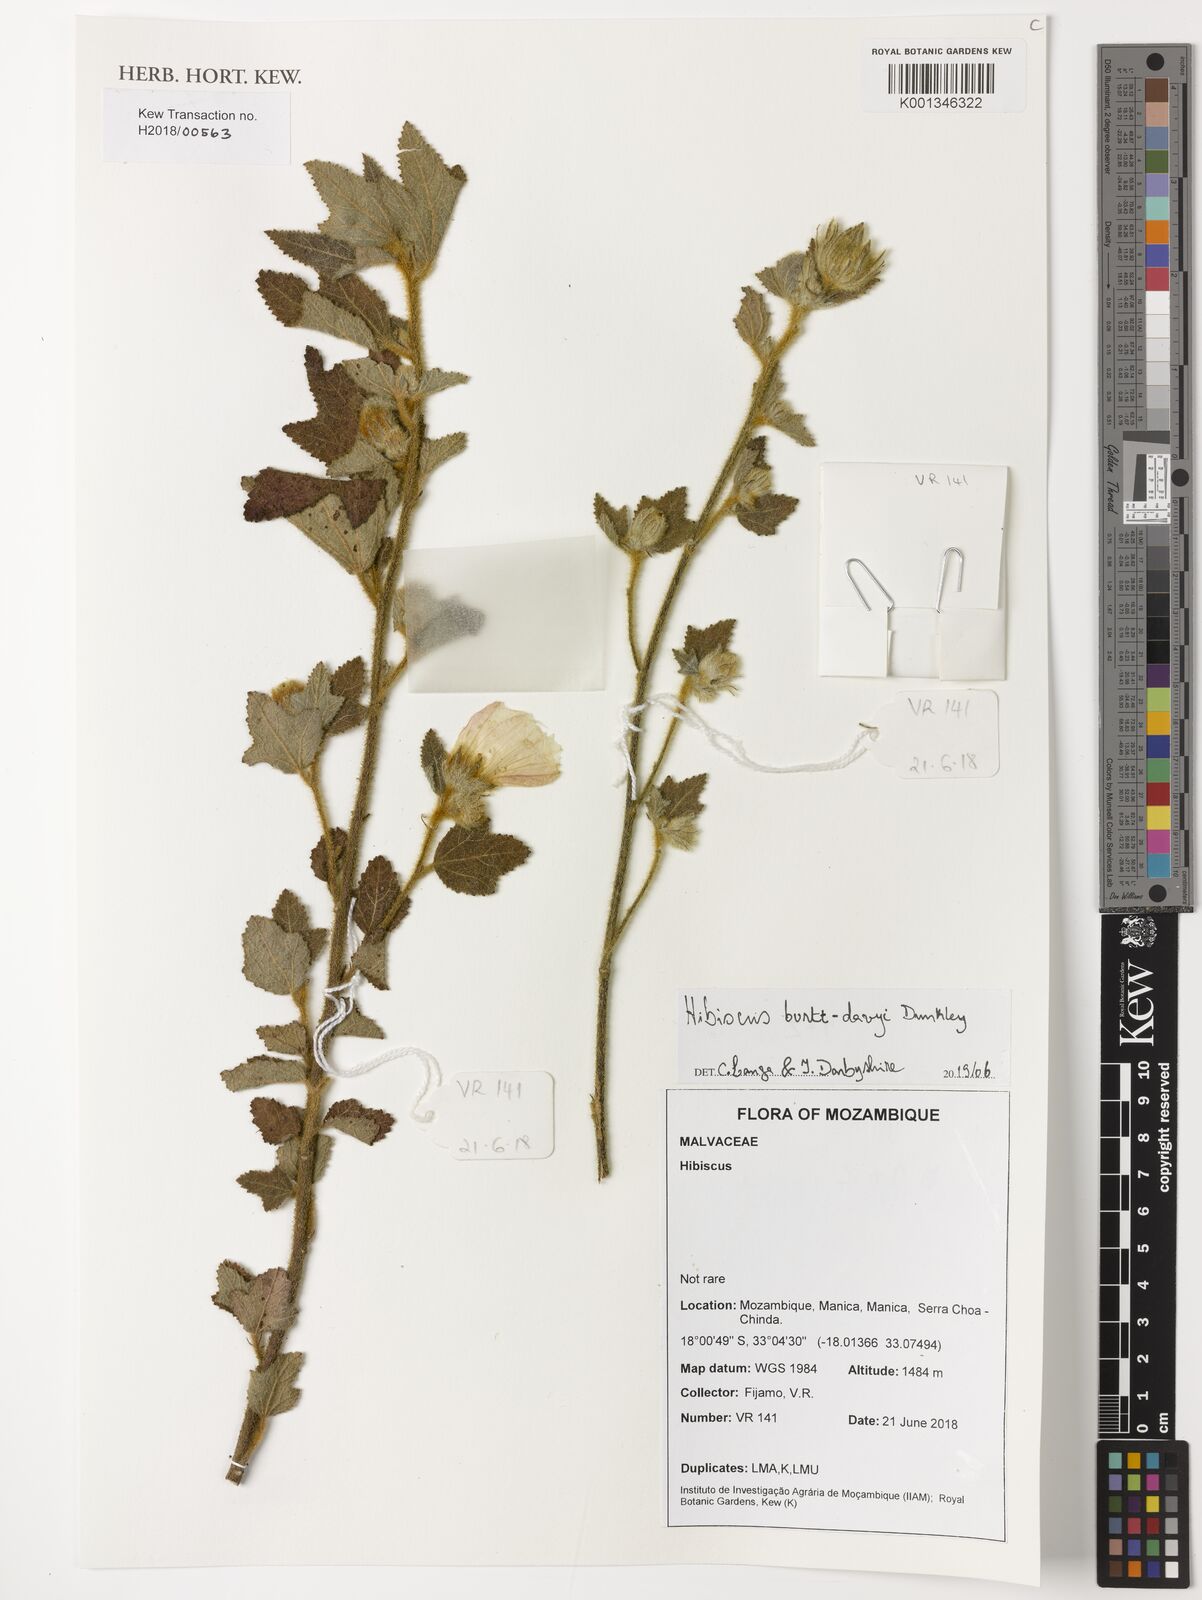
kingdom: Plantae
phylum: Tracheophyta
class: Magnoliopsida
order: Malvales
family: Malvaceae
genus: Hibiscus
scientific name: Hibiscus burtt-davyi
